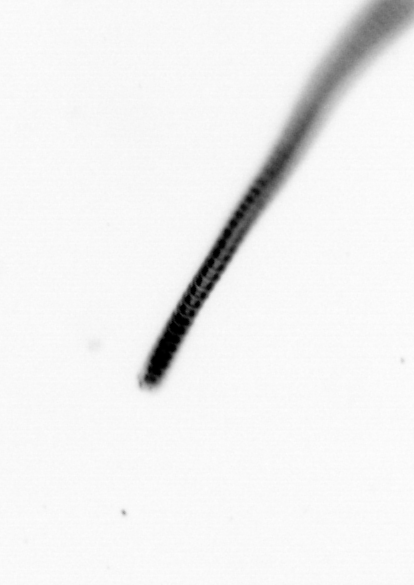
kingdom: Chromista
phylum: Ochrophyta
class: Bacillariophyceae
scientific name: Bacillariophyceae
